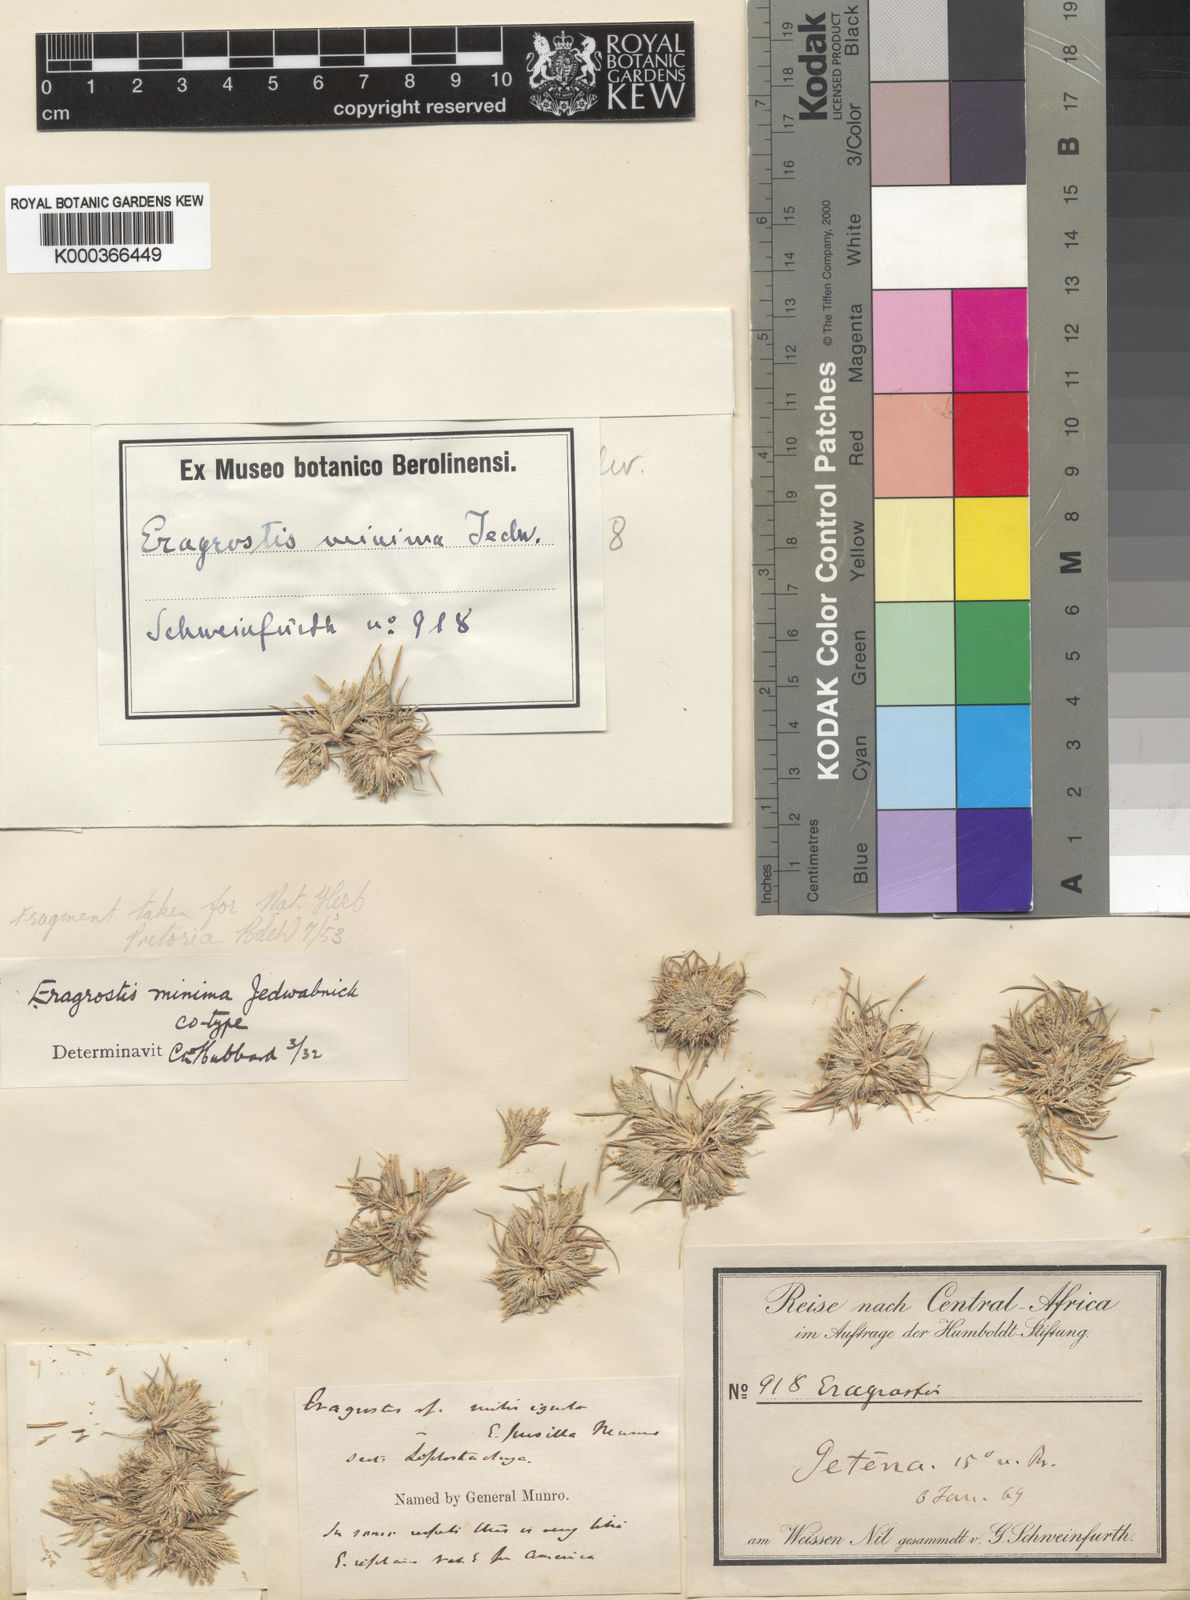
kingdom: Plantae
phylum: Tracheophyta
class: Liliopsida
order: Poales
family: Poaceae
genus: Eragrostis
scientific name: Eragrostis aegyptiaca
